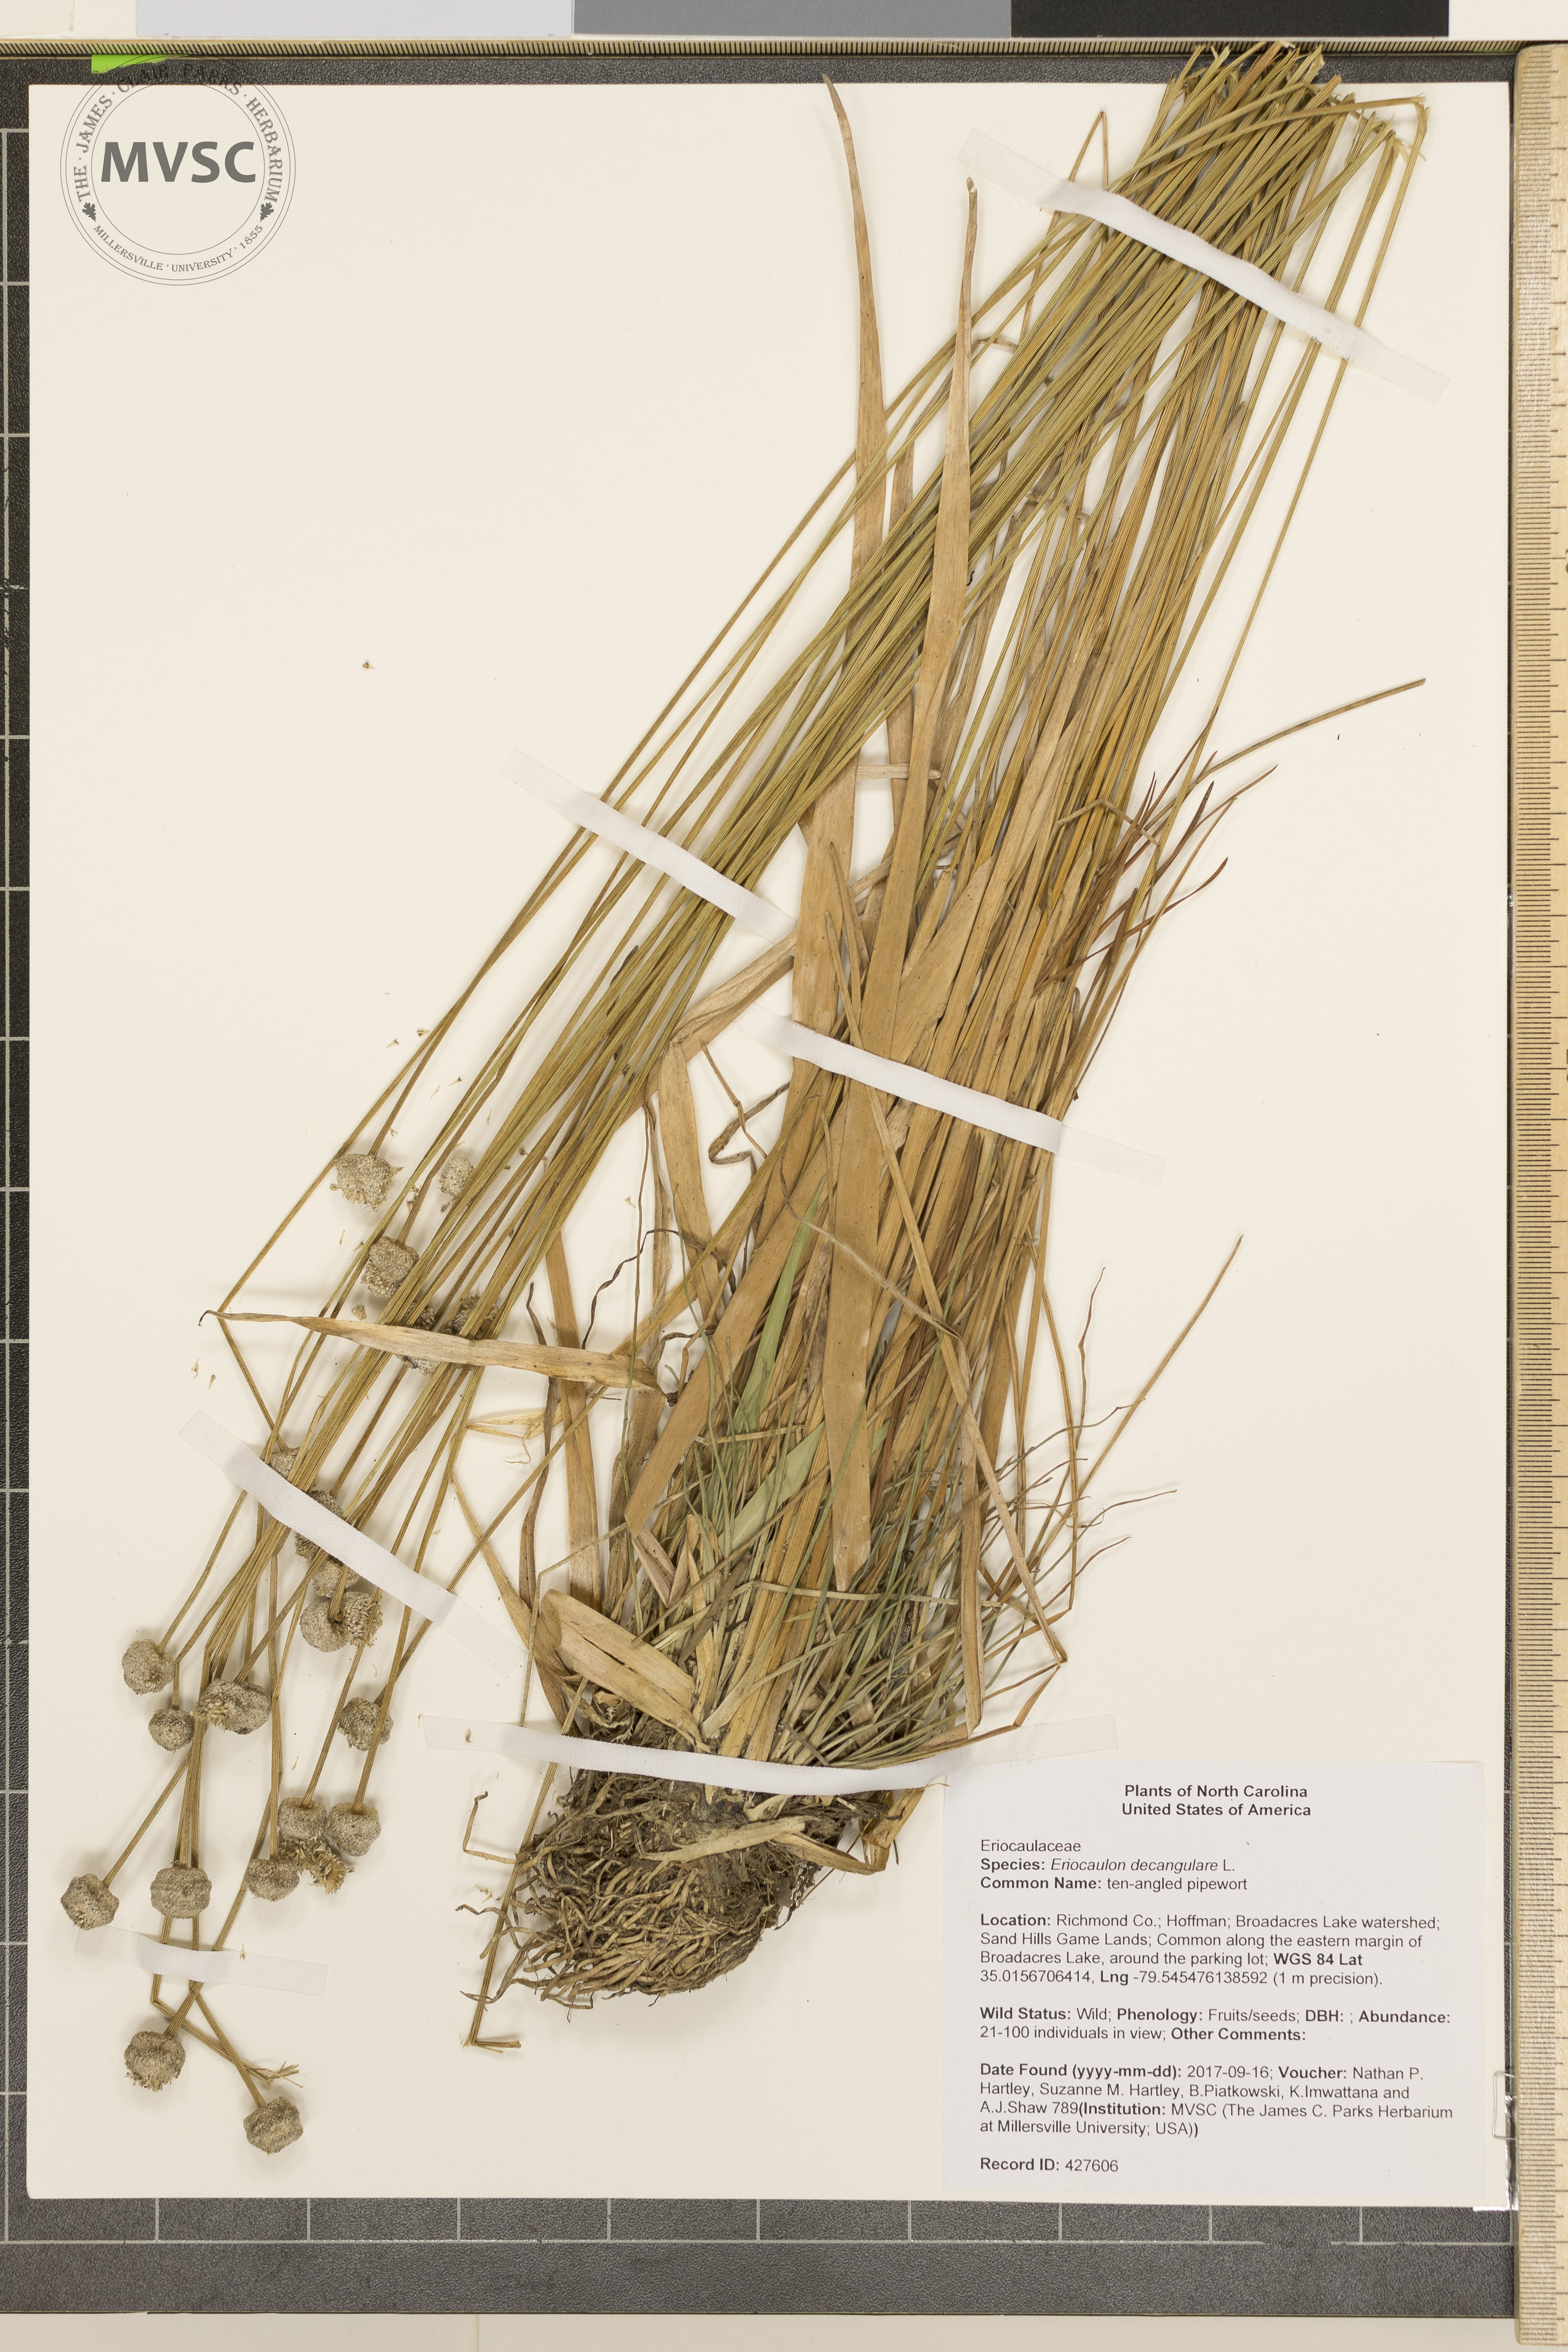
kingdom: Plantae
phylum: Tracheophyta
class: Liliopsida
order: Poales
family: Eriocaulaceae
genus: Eriocaulon
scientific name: Eriocaulon decangulare
